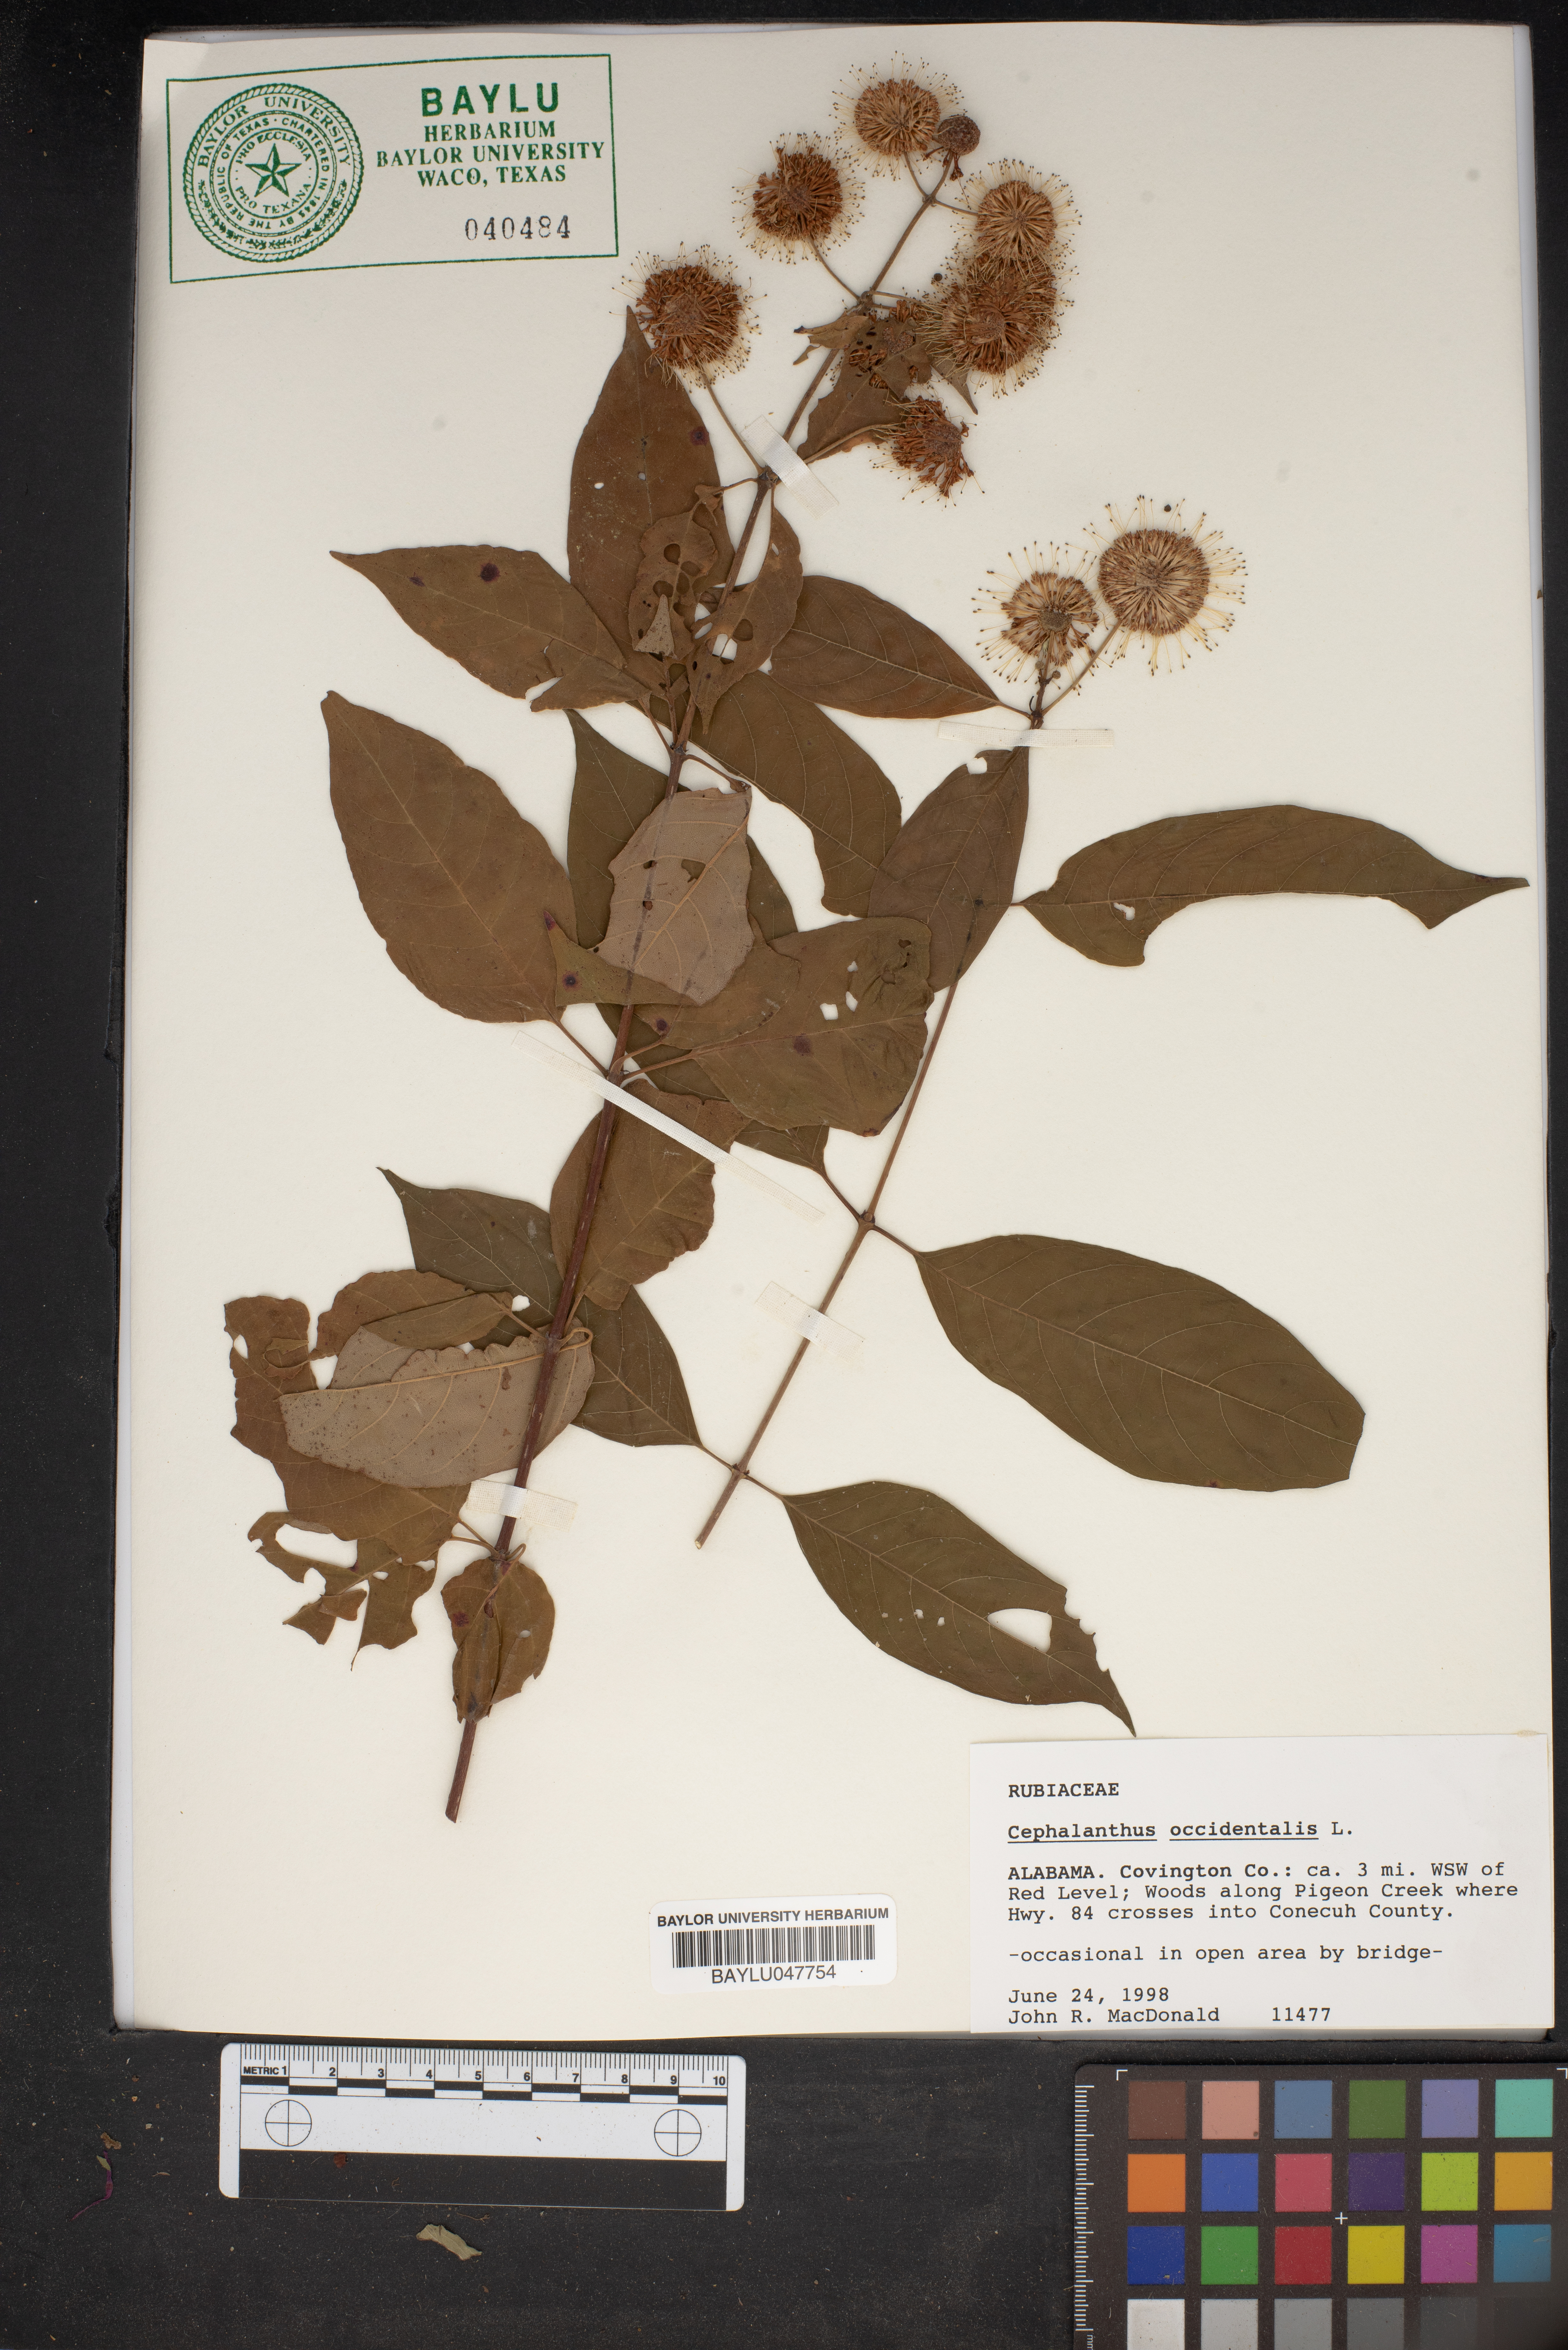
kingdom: Plantae
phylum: Tracheophyta
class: Magnoliopsida
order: Gentianales
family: Rubiaceae
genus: Cephalanthus
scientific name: Cephalanthus occidentalis
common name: Button-willow
